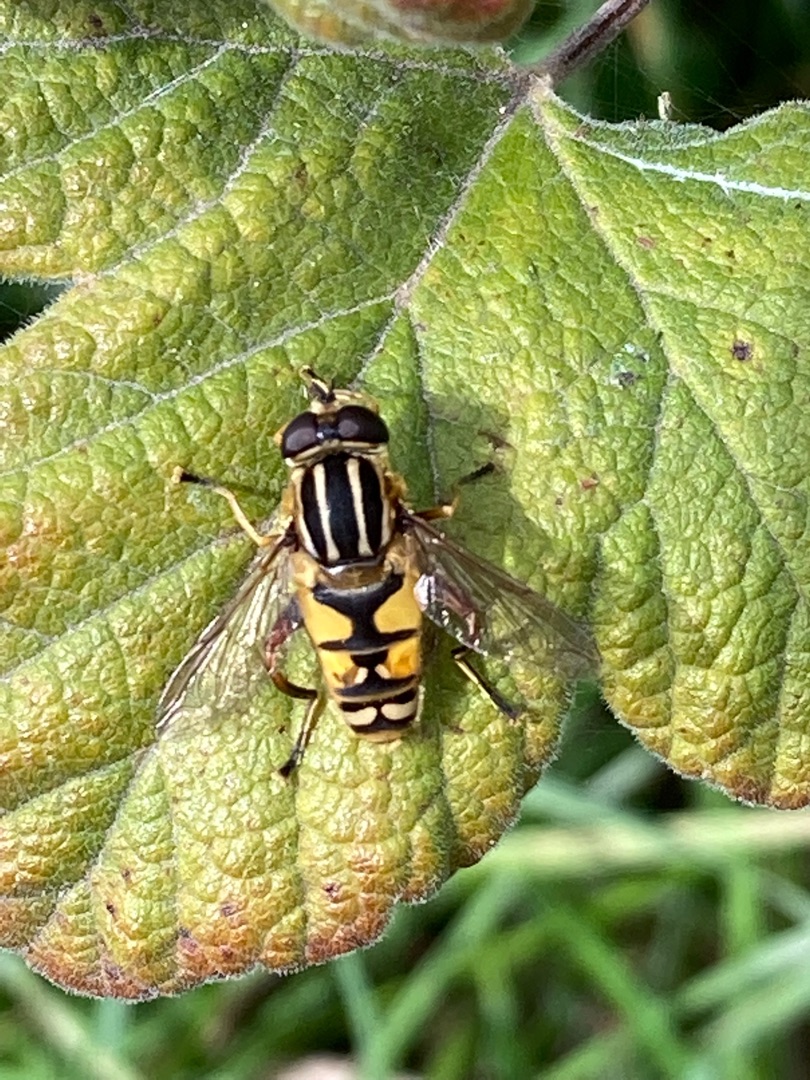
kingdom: Animalia
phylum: Arthropoda
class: Insecta
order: Diptera
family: Syrphidae
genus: Helophilus
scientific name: Helophilus pendulus
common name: Almindelig sumpsvirreflue
